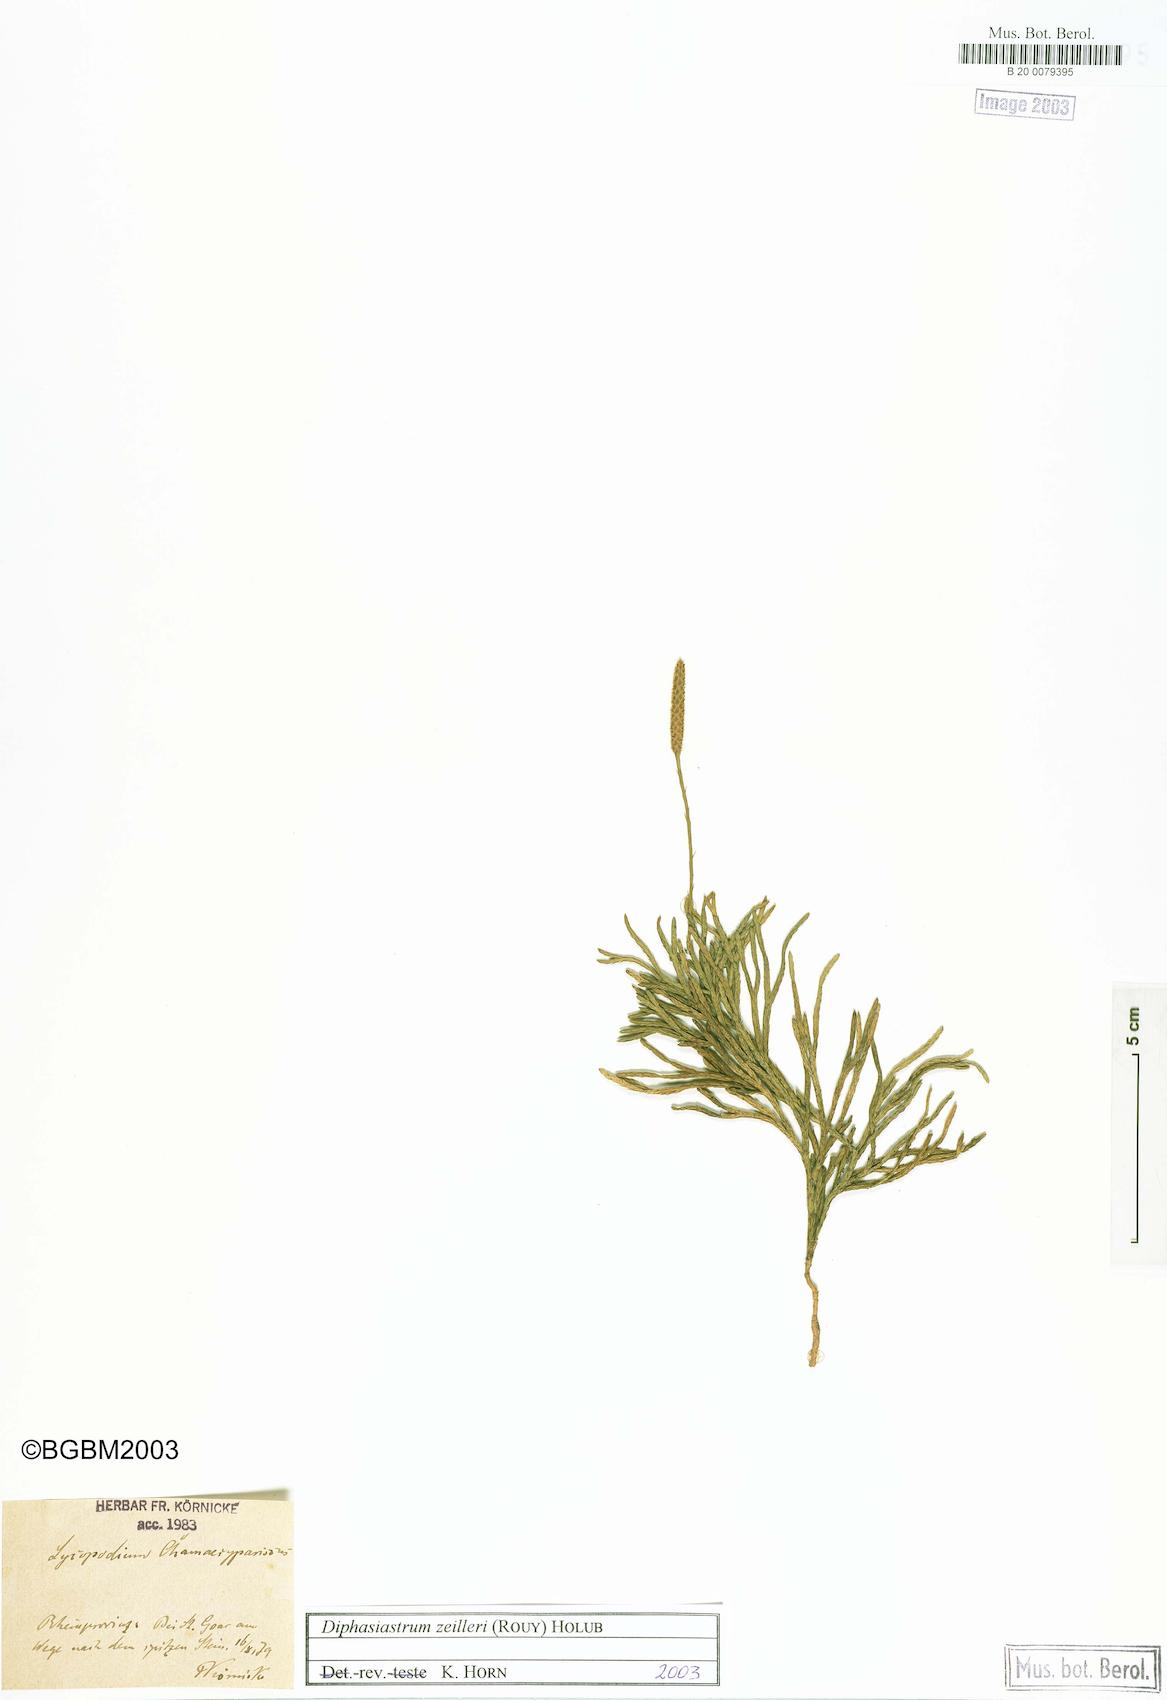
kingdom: Plantae
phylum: Tracheophyta
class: Lycopodiopsida
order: Lycopodiales
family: Lycopodiaceae
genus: Diphasiastrum
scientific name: Diphasiastrum zeilleri
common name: Zeiller's clubmoss
